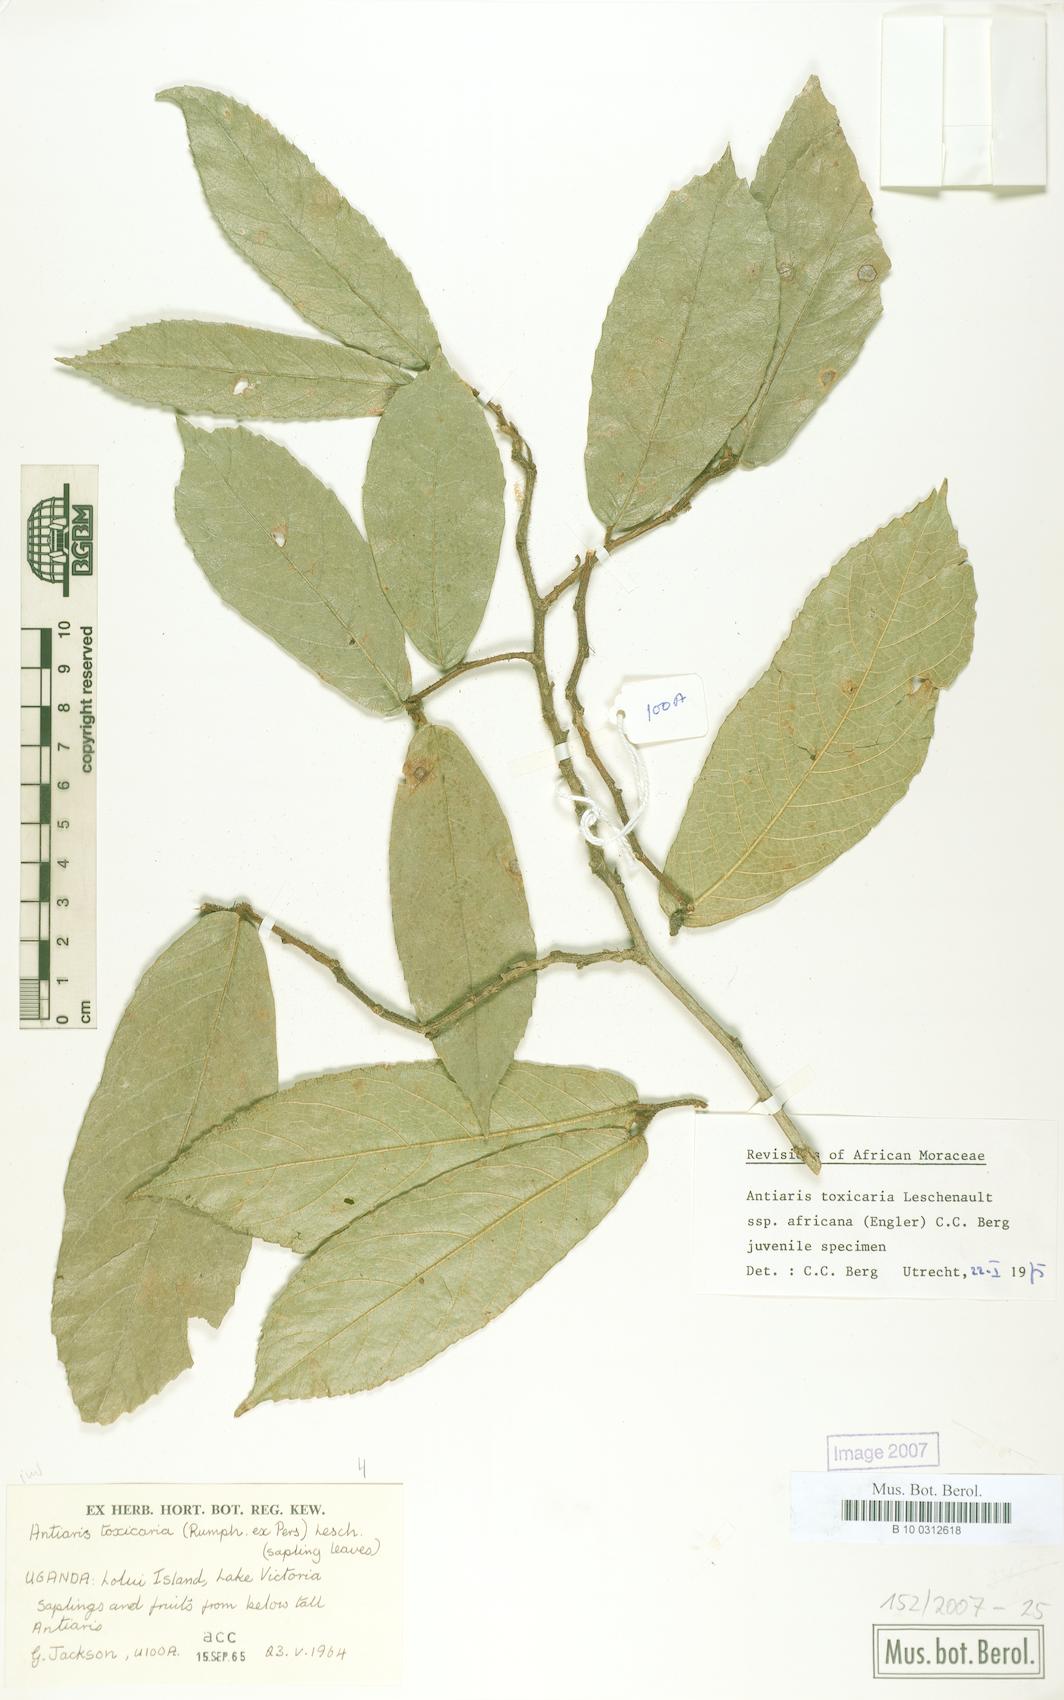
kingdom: Plantae
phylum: Tracheophyta
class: Magnoliopsida
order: Rosales
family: Moraceae
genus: Antiaris
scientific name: Antiaris toxicaria
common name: Sackingtree
